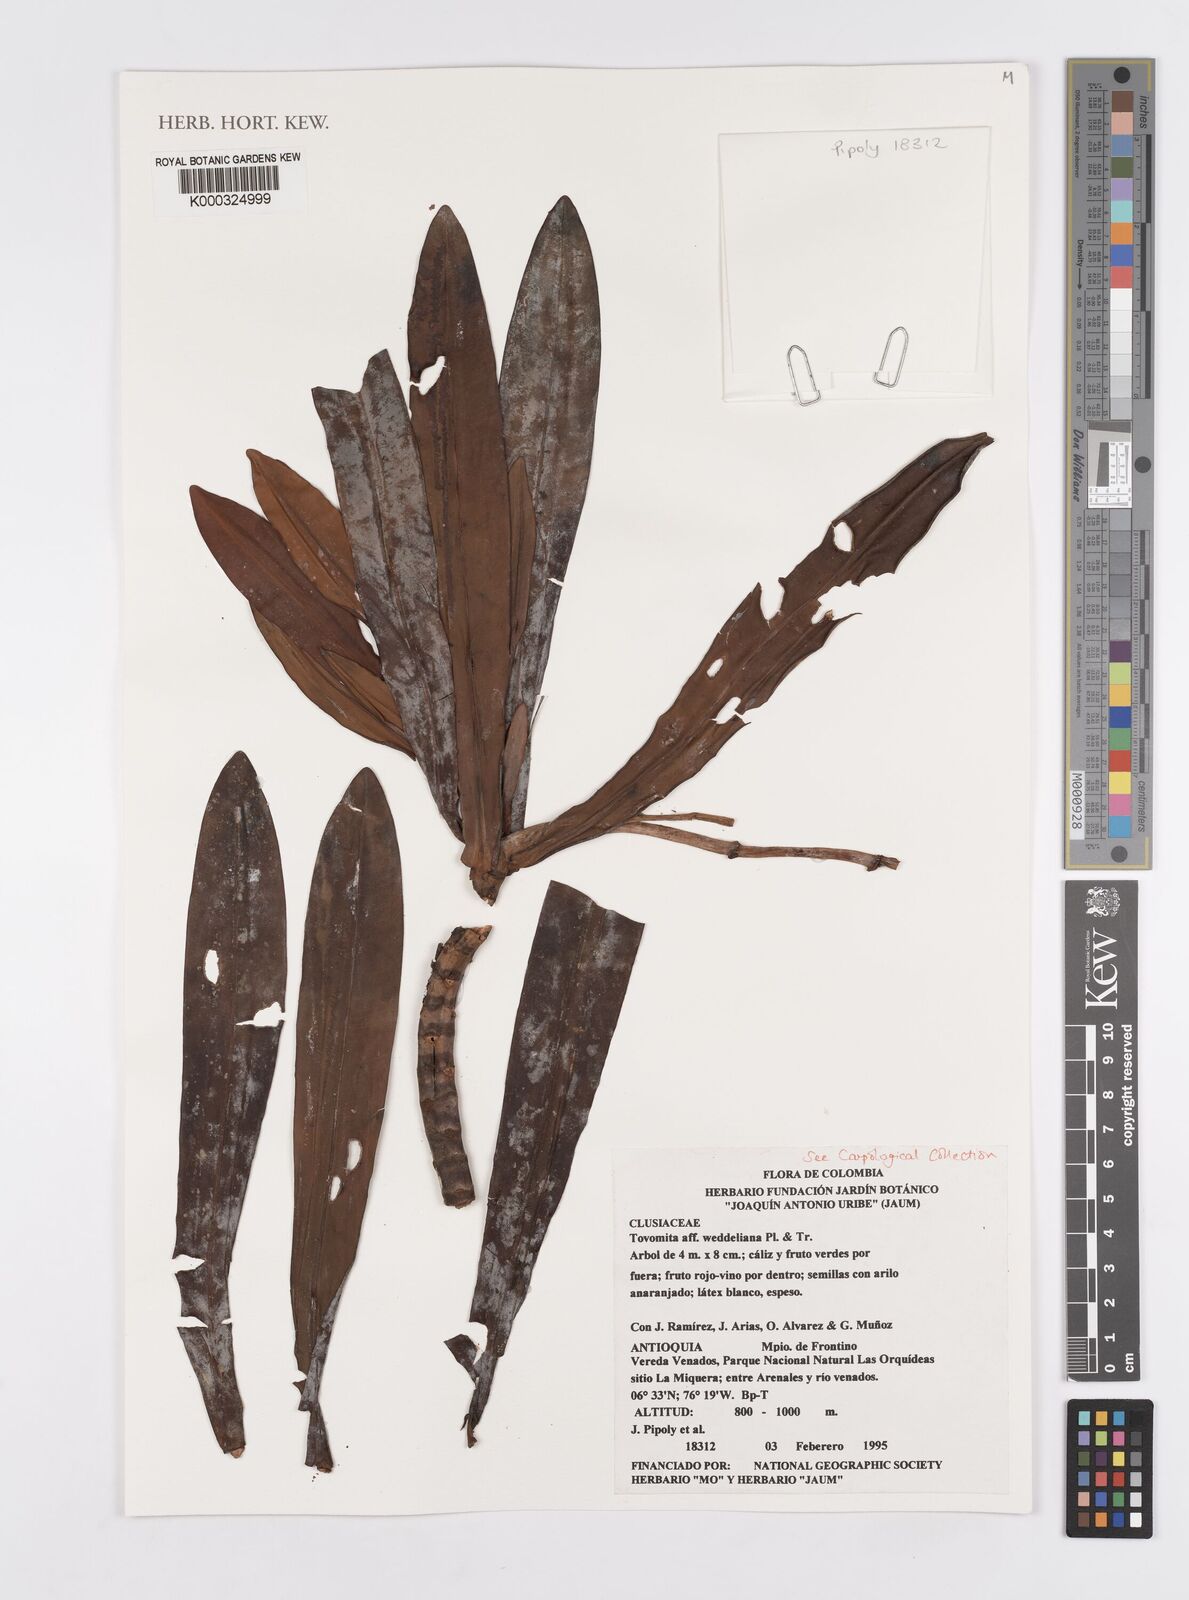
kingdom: Plantae
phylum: Tracheophyta
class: Magnoliopsida
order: Malpighiales
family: Clusiaceae
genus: Garcinia
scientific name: Garcinia
